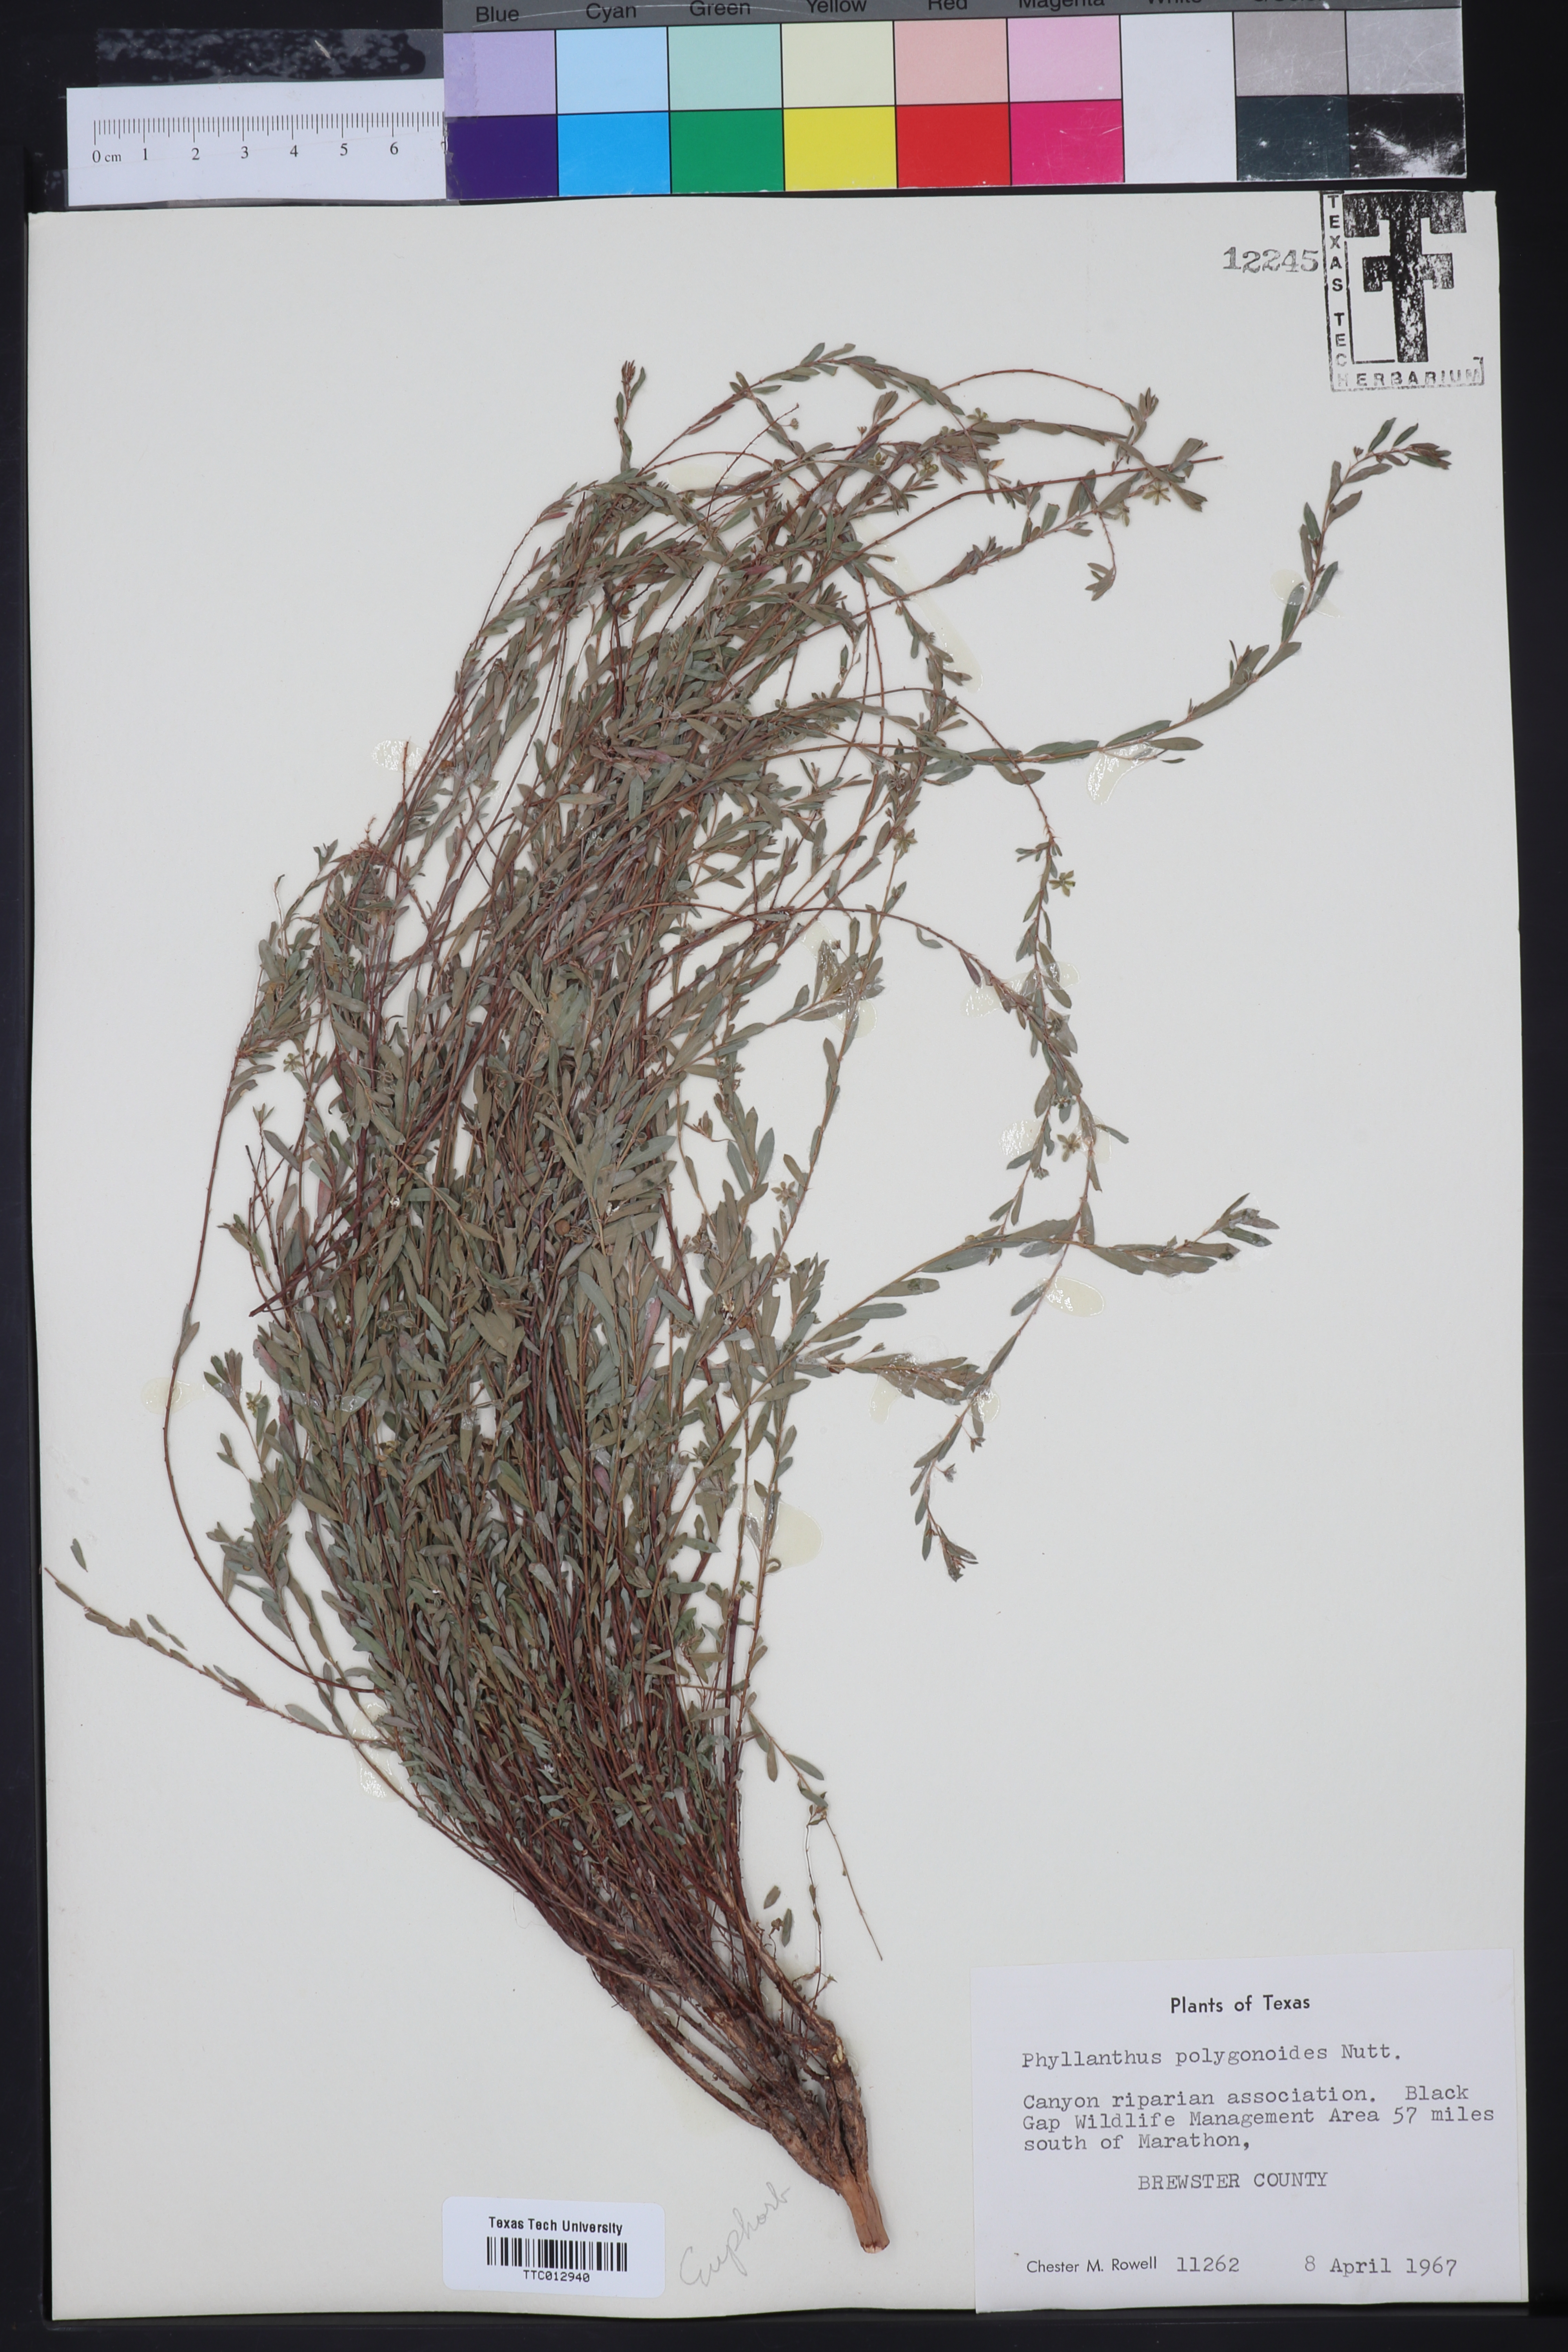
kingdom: Plantae
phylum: Tracheophyta
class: Magnoliopsida
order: Malpighiales
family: Phyllanthaceae
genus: Phyllanthus
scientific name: Phyllanthus polygonoides
